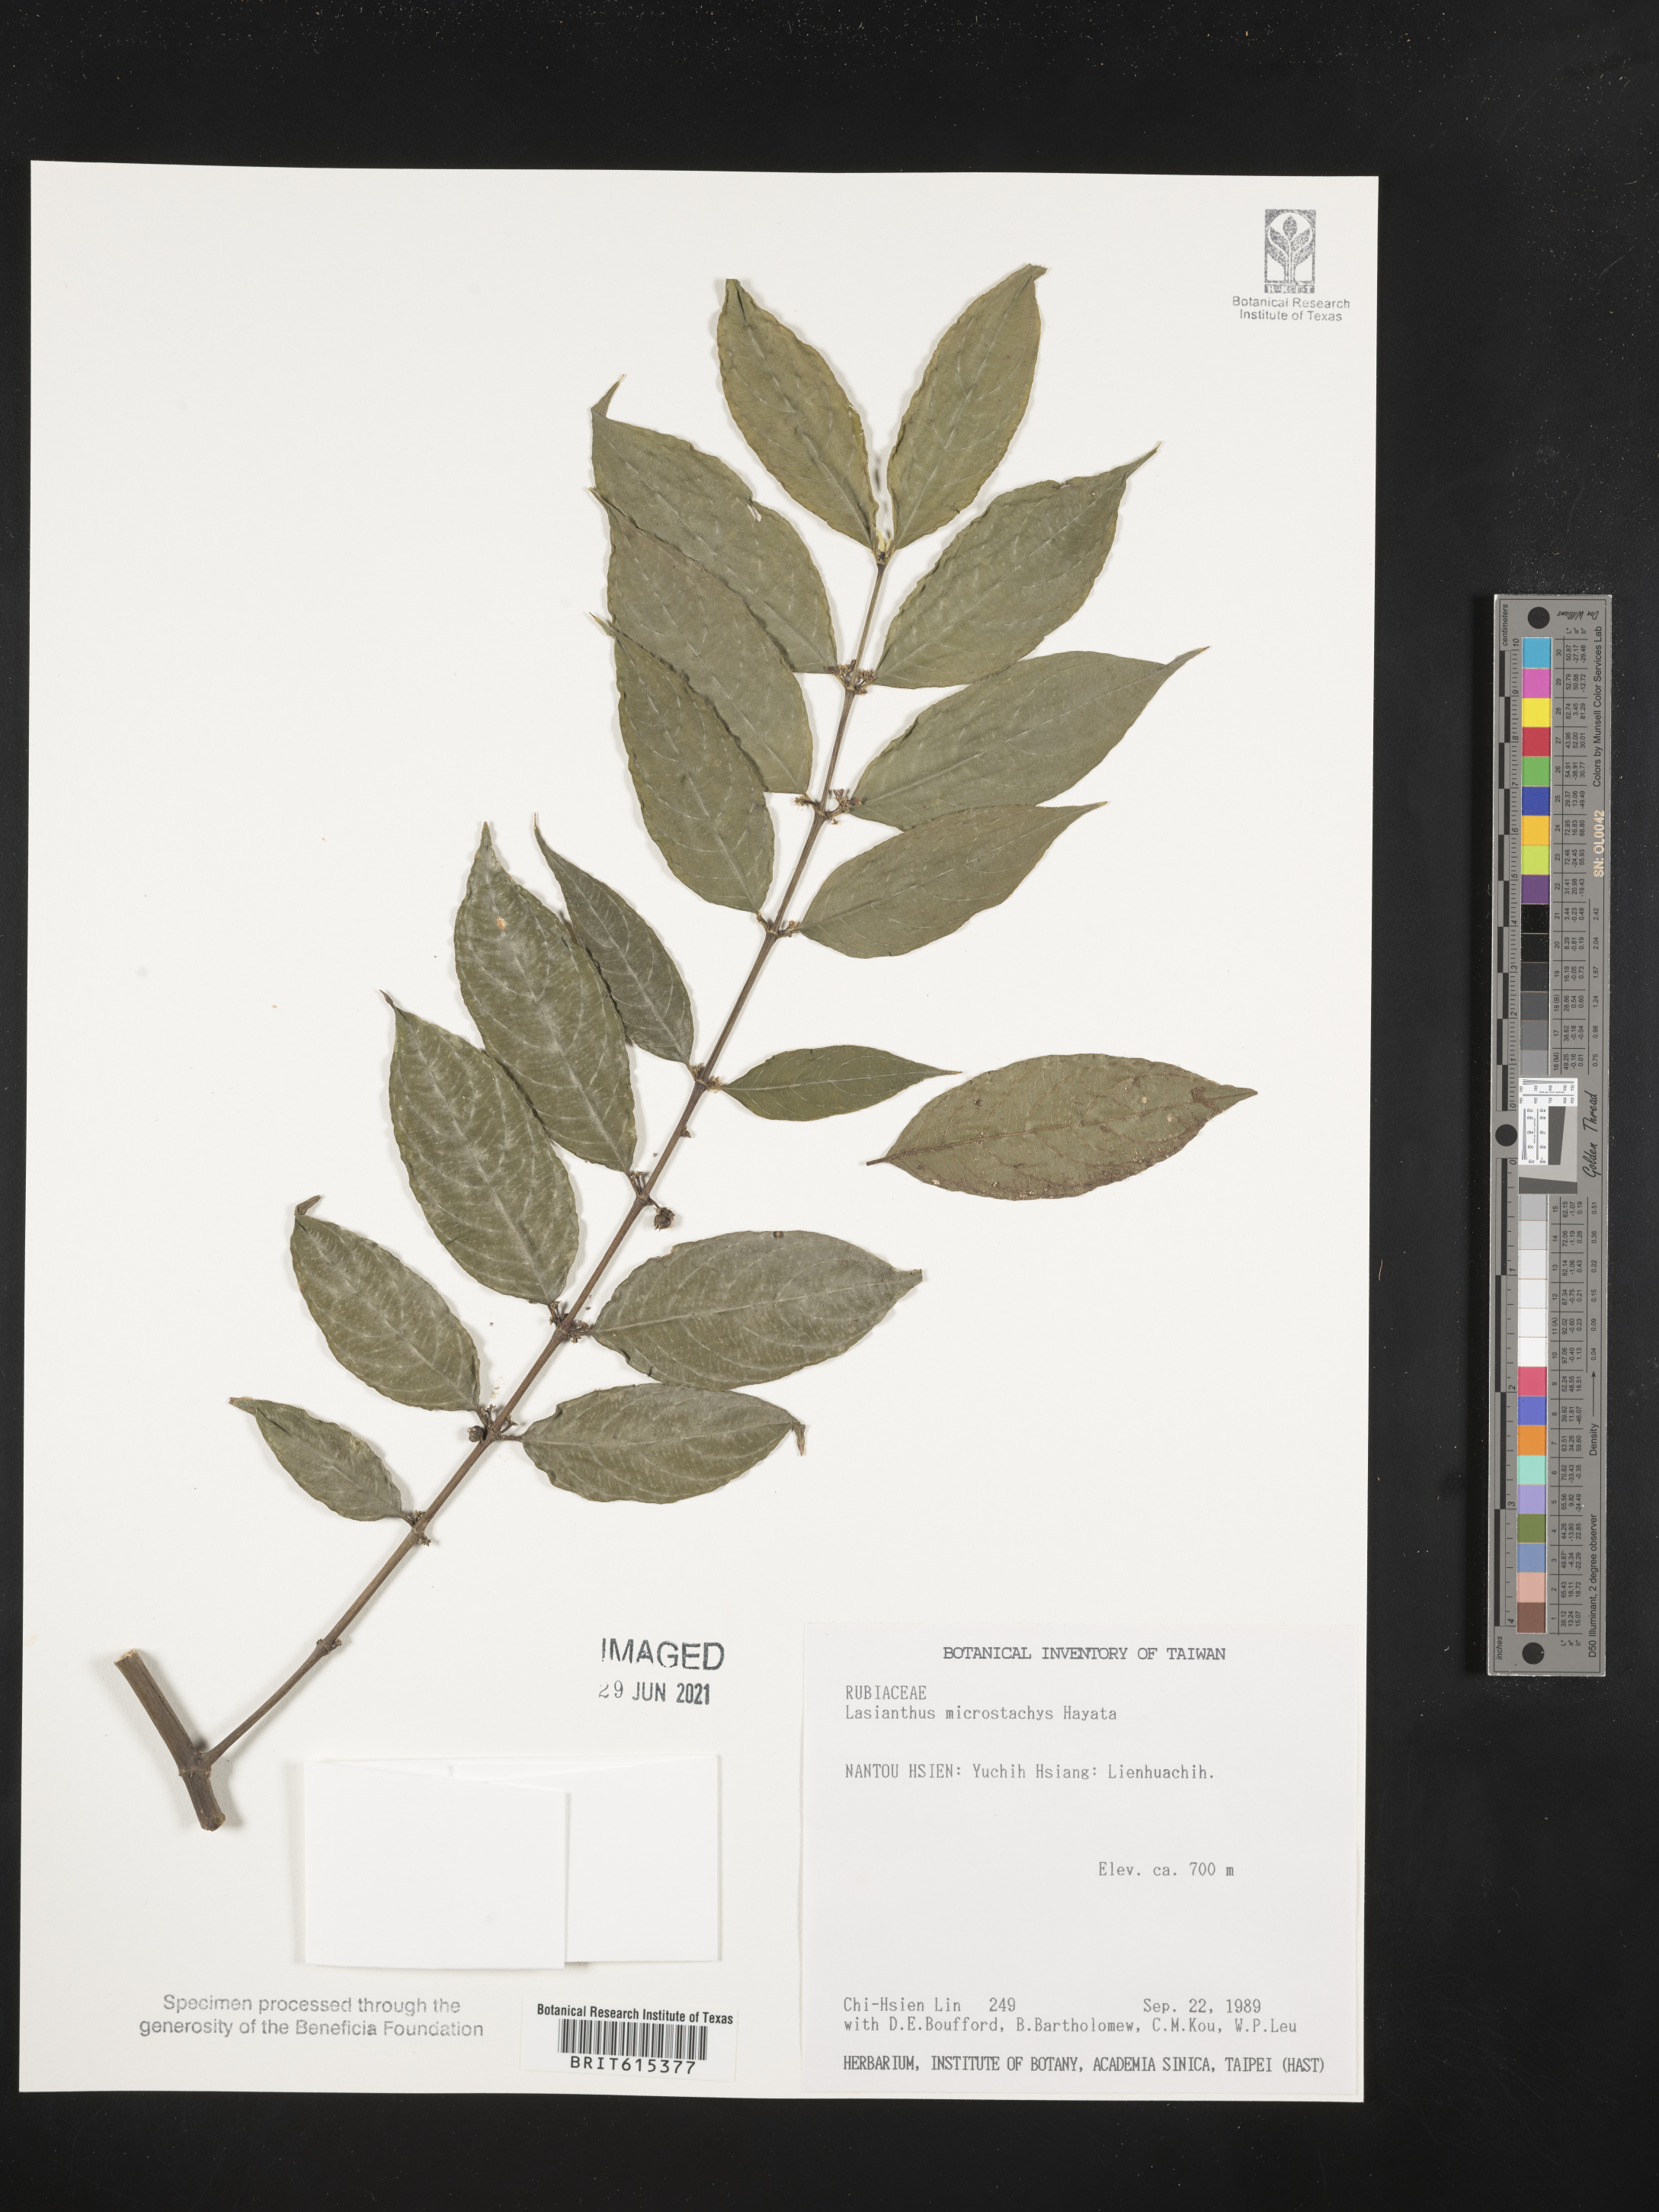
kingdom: Plantae
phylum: Tracheophyta
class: Magnoliopsida
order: Gentianales
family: Rubiaceae
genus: Lasianthus
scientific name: Lasianthus micranthus
